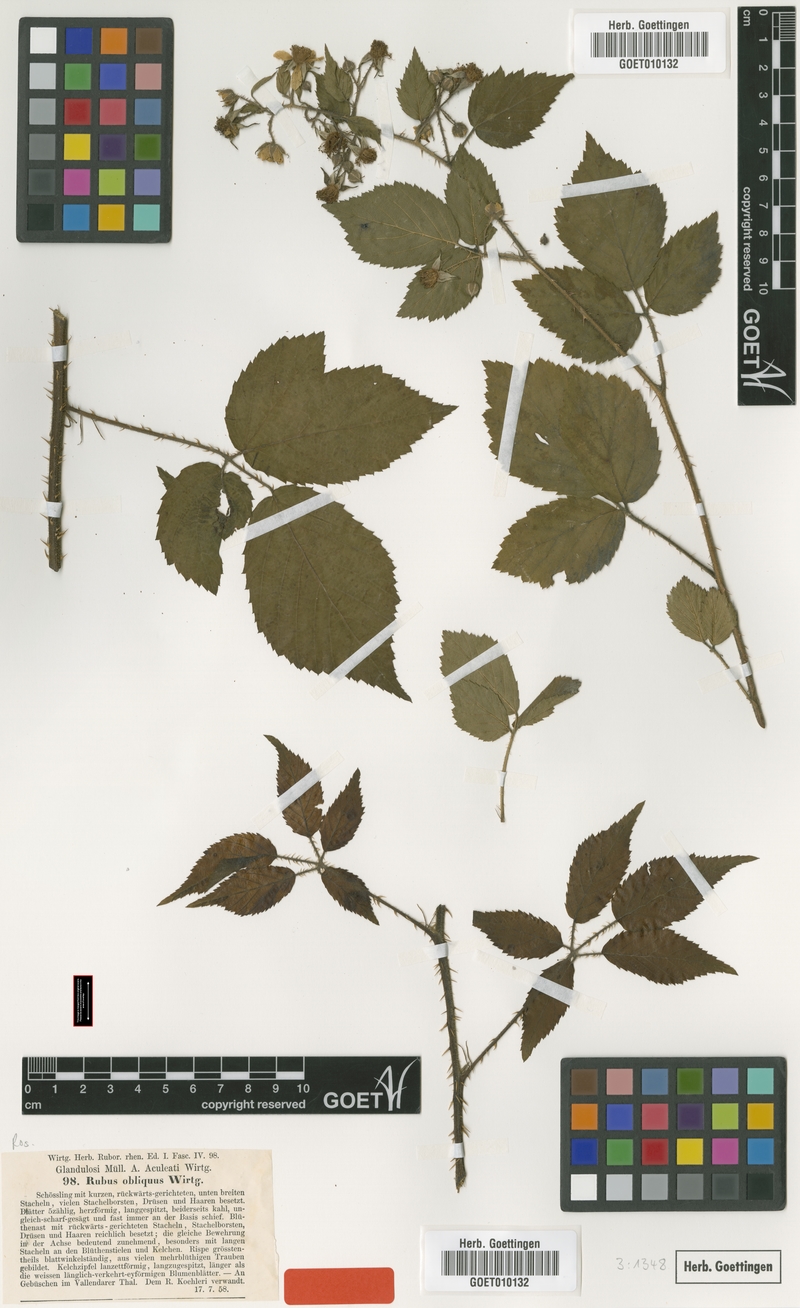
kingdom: Plantae
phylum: Tracheophyta
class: Magnoliopsida
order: Rosales
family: Rosaceae
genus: Rubus
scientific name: Rubus pallidus
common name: Pale bramble
